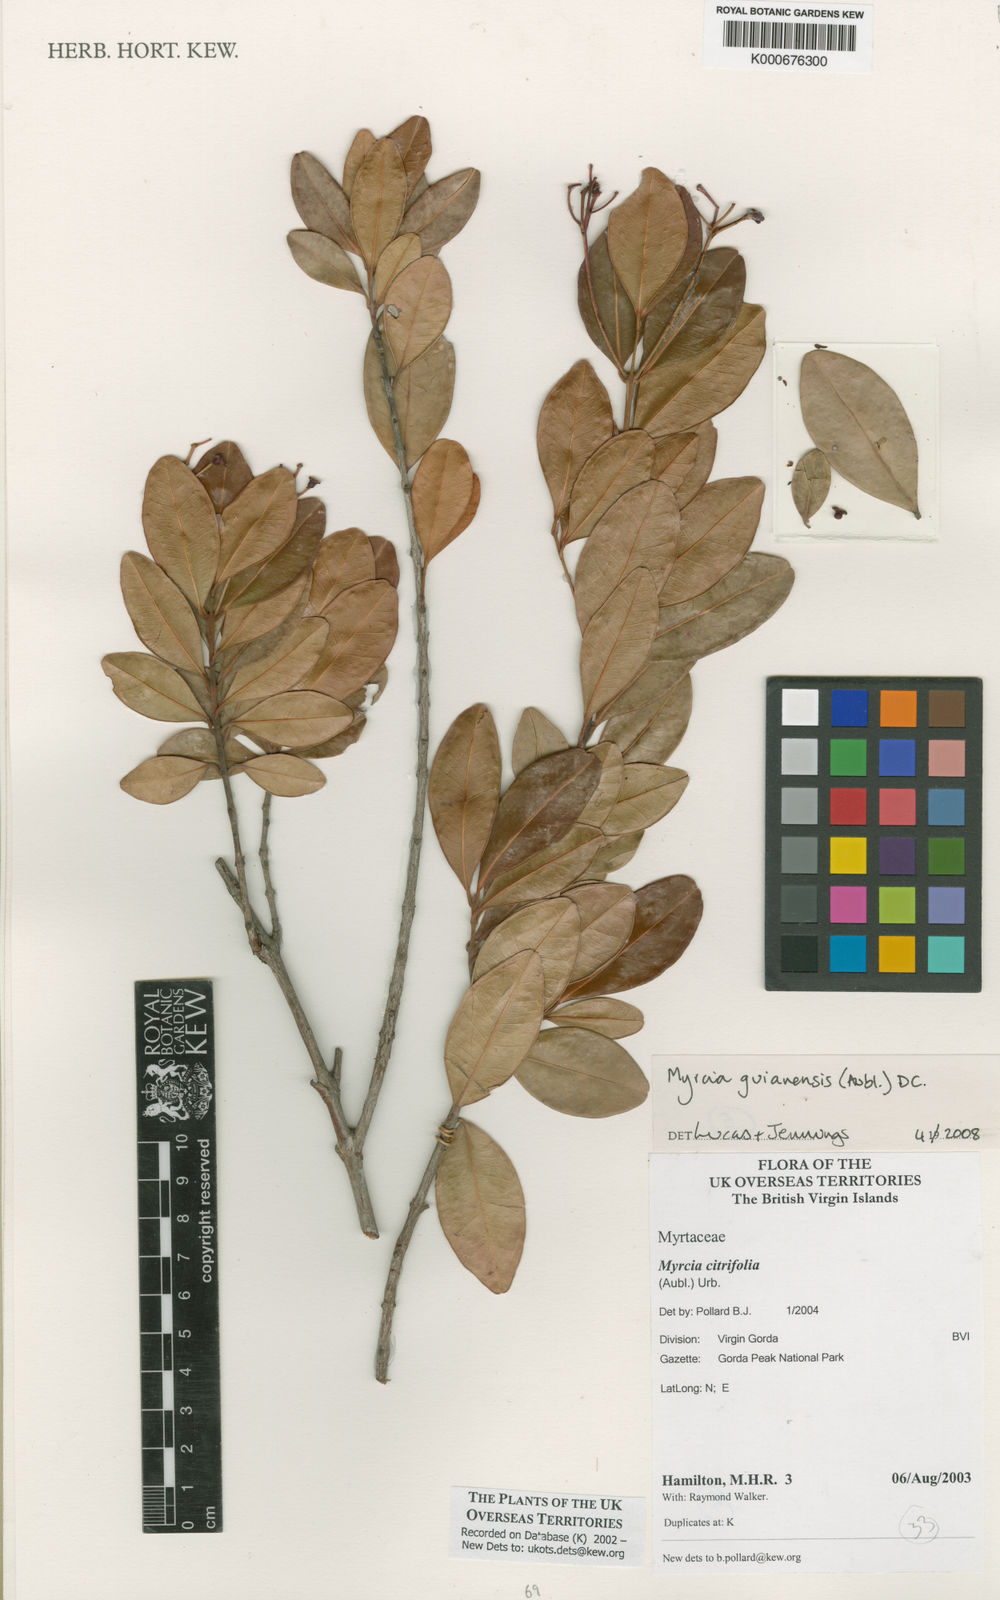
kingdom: Plantae
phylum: Tracheophyta
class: Magnoliopsida
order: Myrtales
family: Myrtaceae
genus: Myrcia
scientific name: Myrcia guianensis
